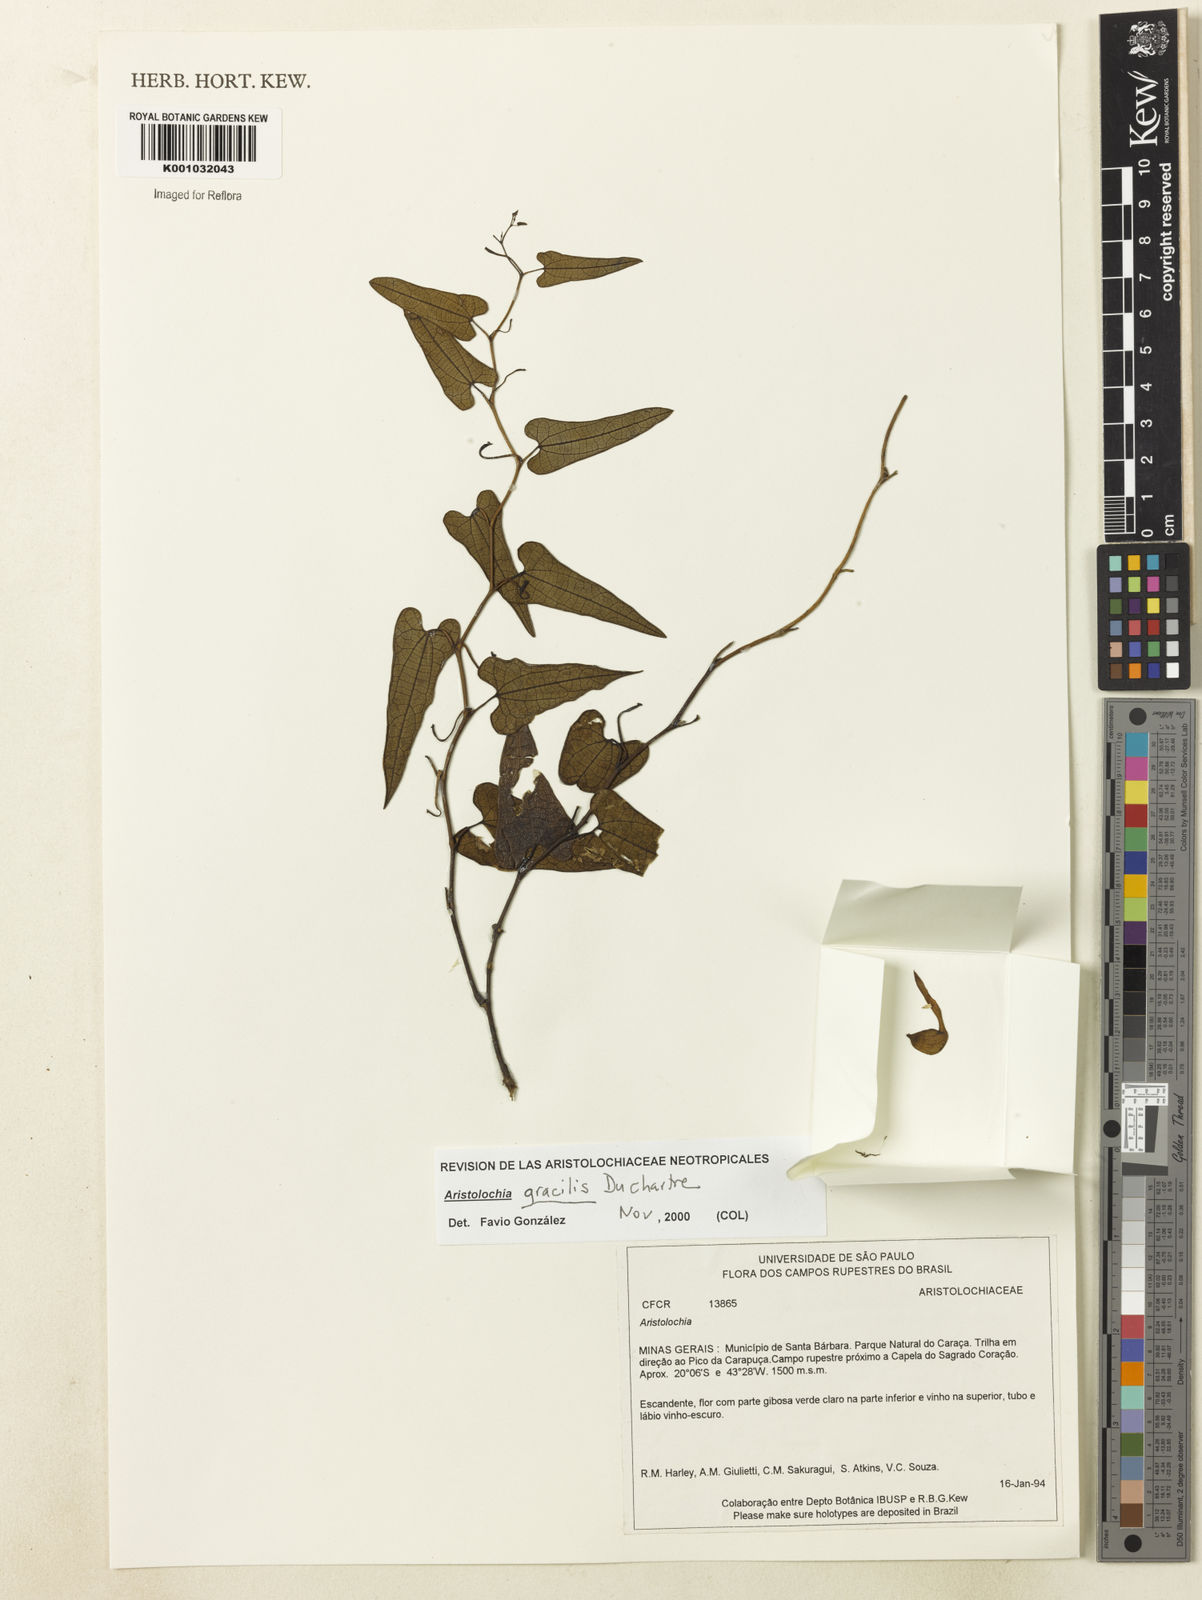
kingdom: Plantae
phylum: Tracheophyta
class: Magnoliopsida
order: Piperales
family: Aristolochiaceae
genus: Aristolochia
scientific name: Aristolochia smilacina
